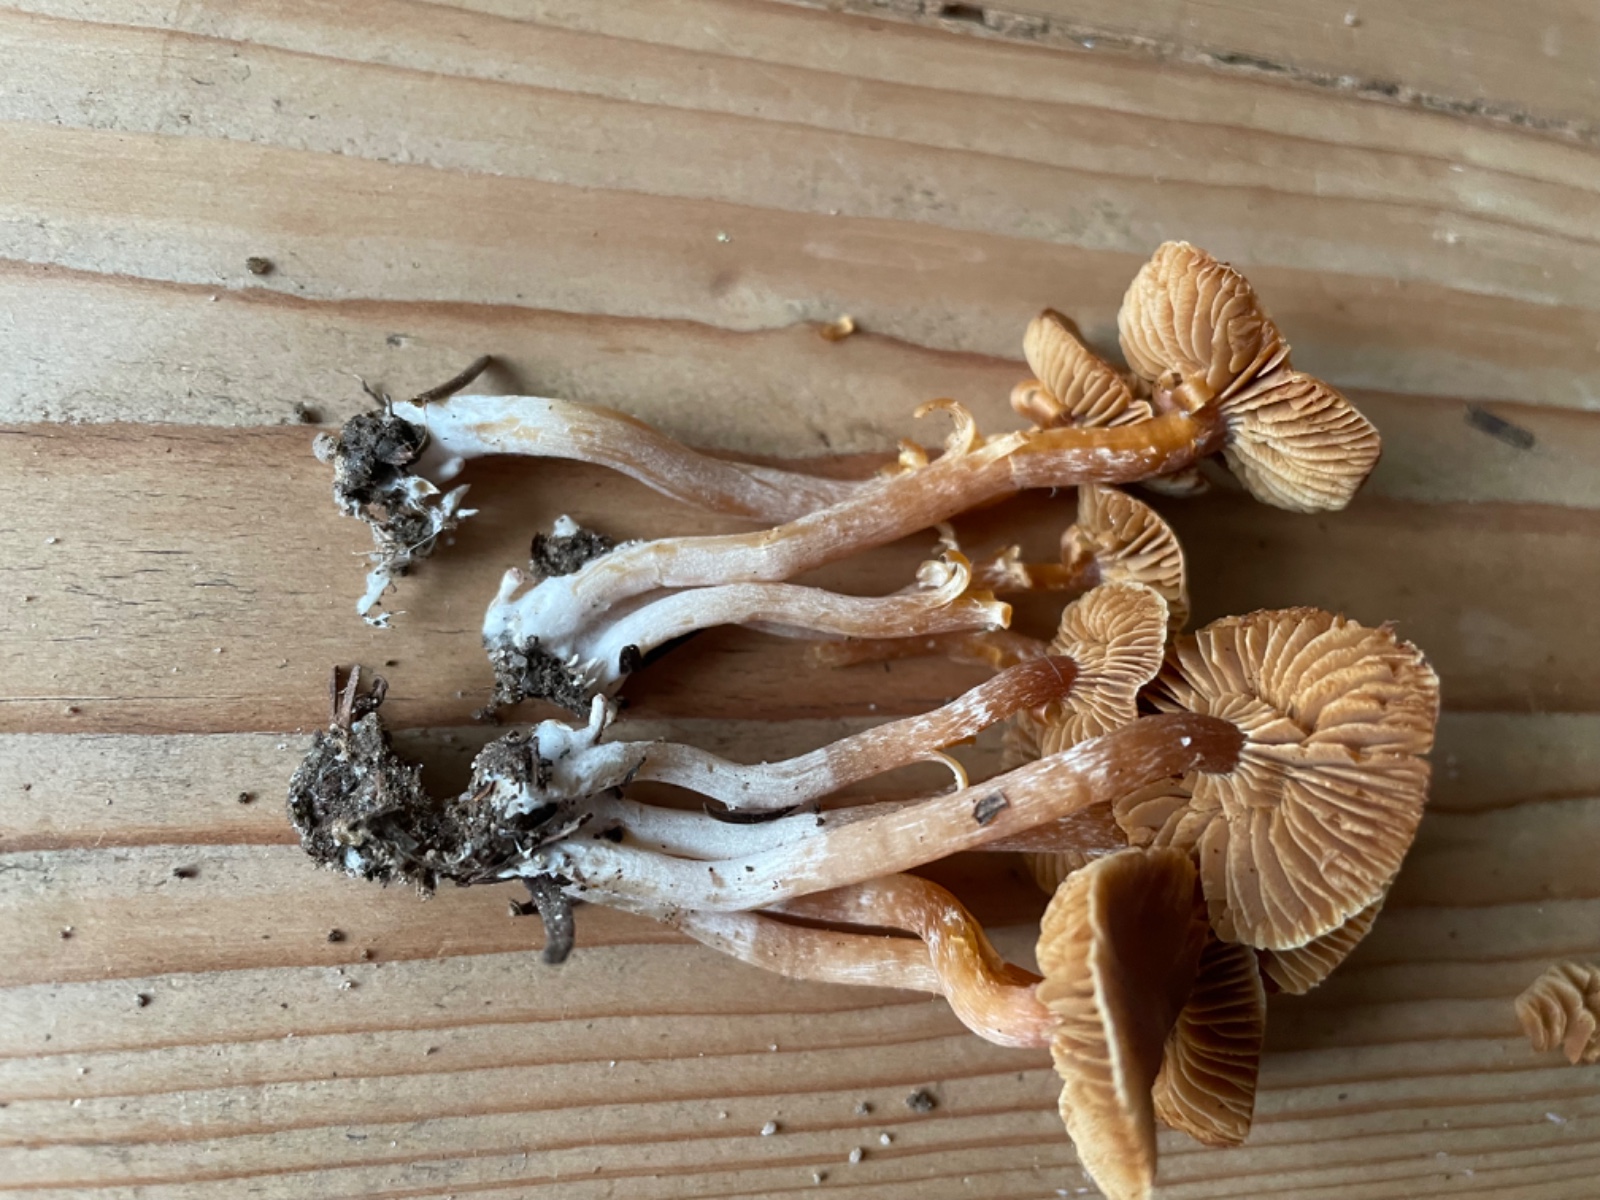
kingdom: Fungi
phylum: Basidiomycota
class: Agaricomycetes
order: Agaricales
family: Cortinariaceae
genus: Cortinarius
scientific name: Cortinarius
